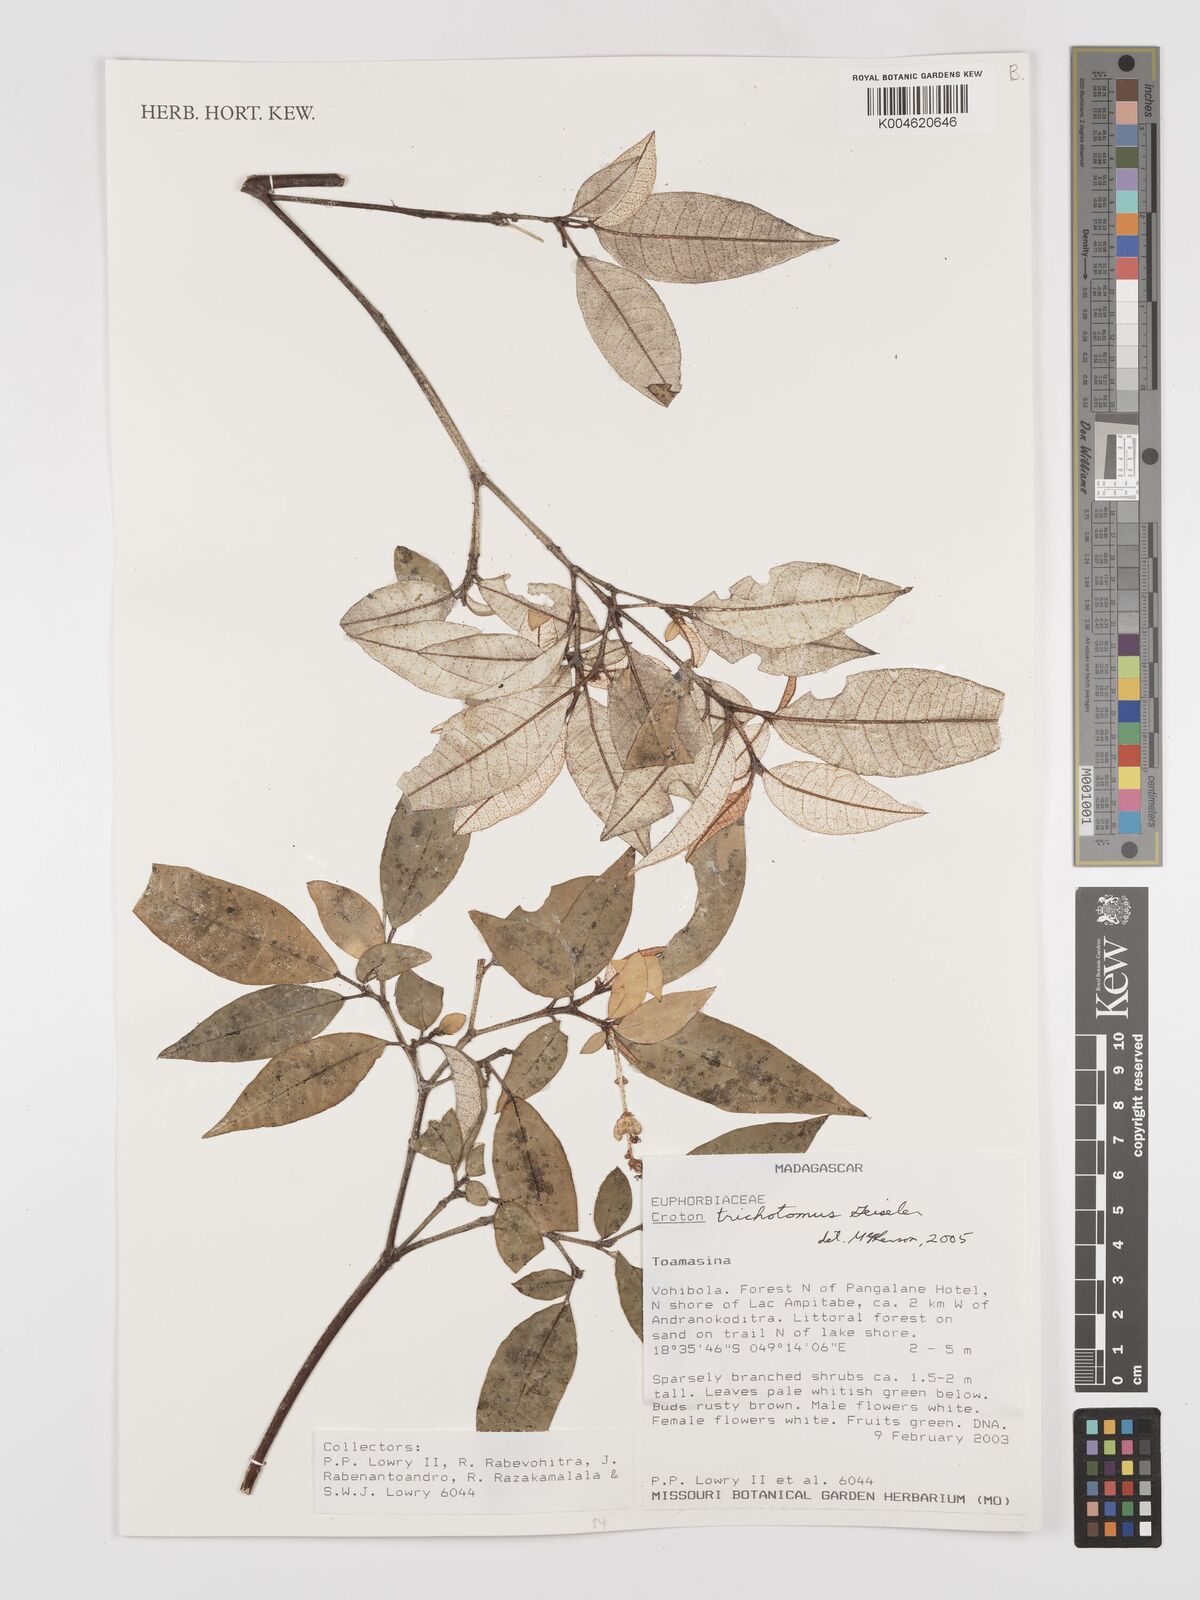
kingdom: Plantae
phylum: Tracheophyta
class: Magnoliopsida
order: Malpighiales
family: Euphorbiaceae
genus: Croton
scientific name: Croton trichotomus
